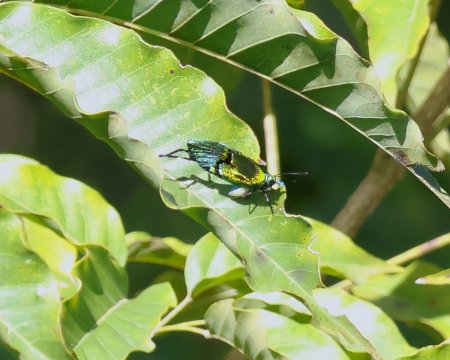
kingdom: Animalia
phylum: Arthropoda
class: Insecta
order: Lepidoptera
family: Lycaenidae
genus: Arcas
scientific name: Arcas cypria
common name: Mexican Arcas
